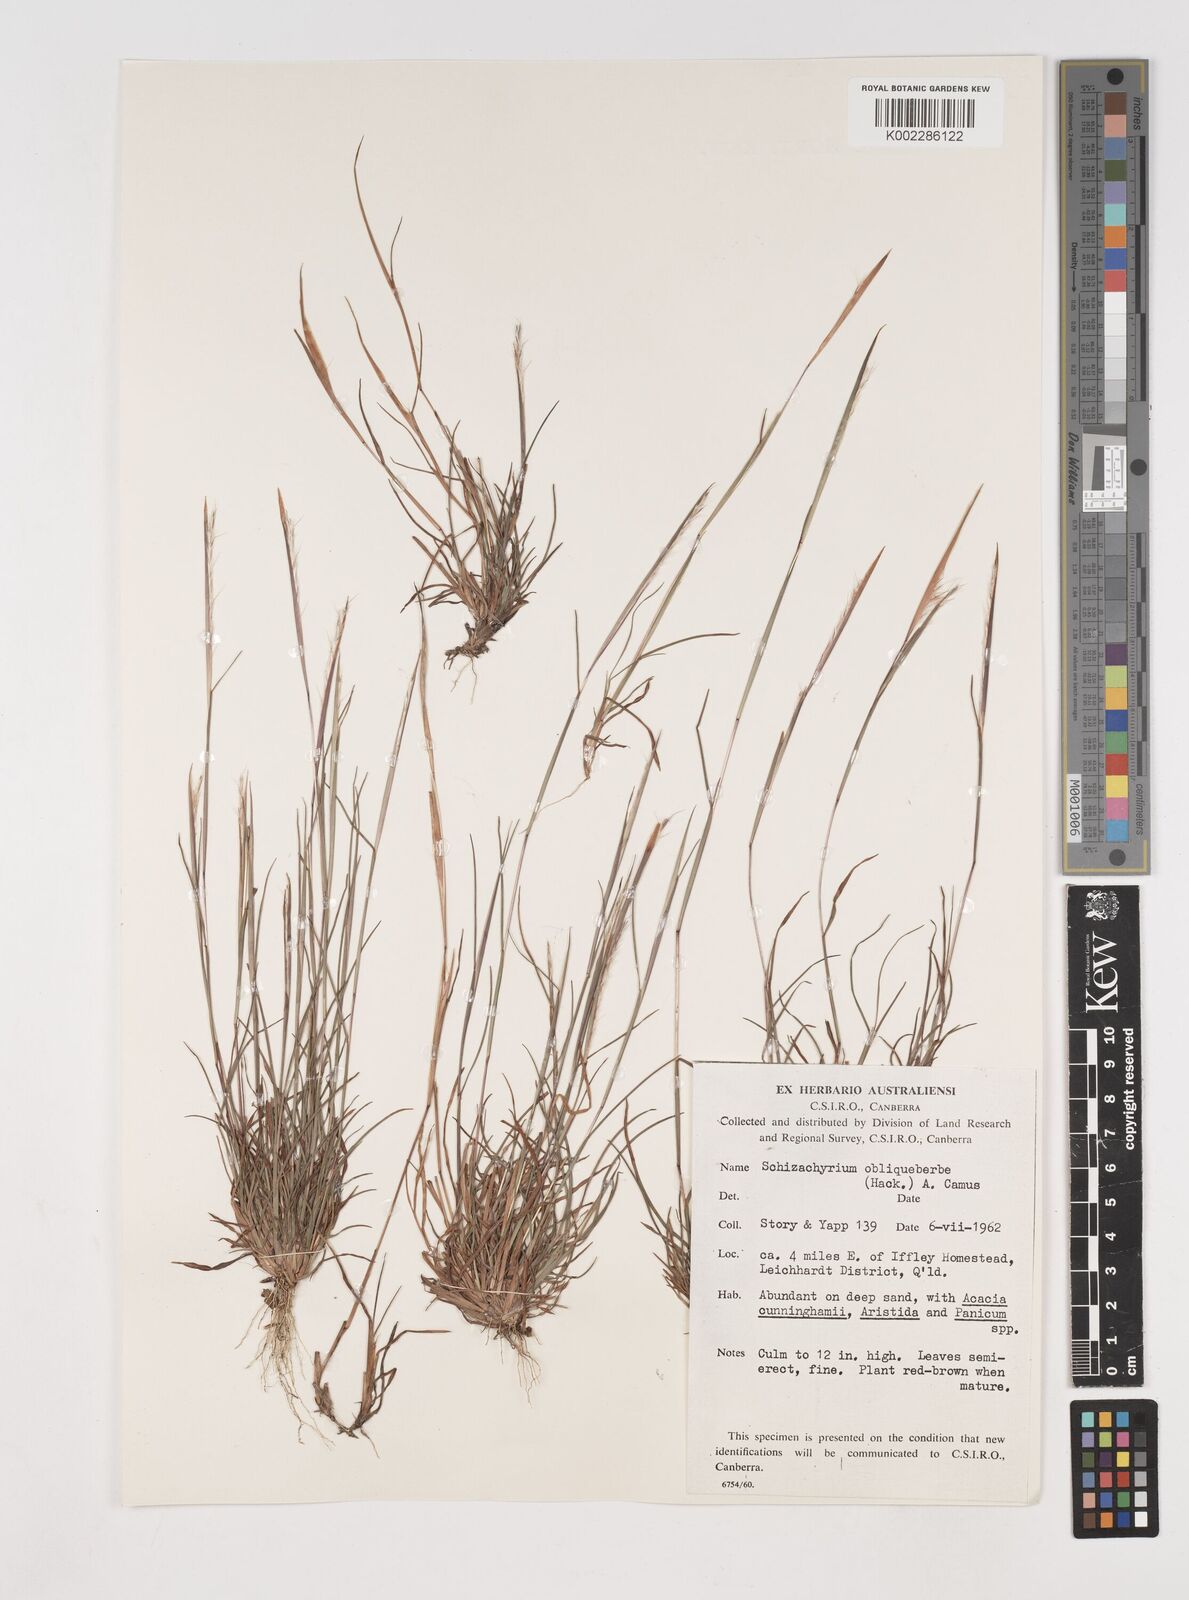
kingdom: Plantae
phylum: Tracheophyta
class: Liliopsida
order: Poales
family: Poaceae
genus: Schizachyrium
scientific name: Schizachyrium fragile
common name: Red spathe grass
